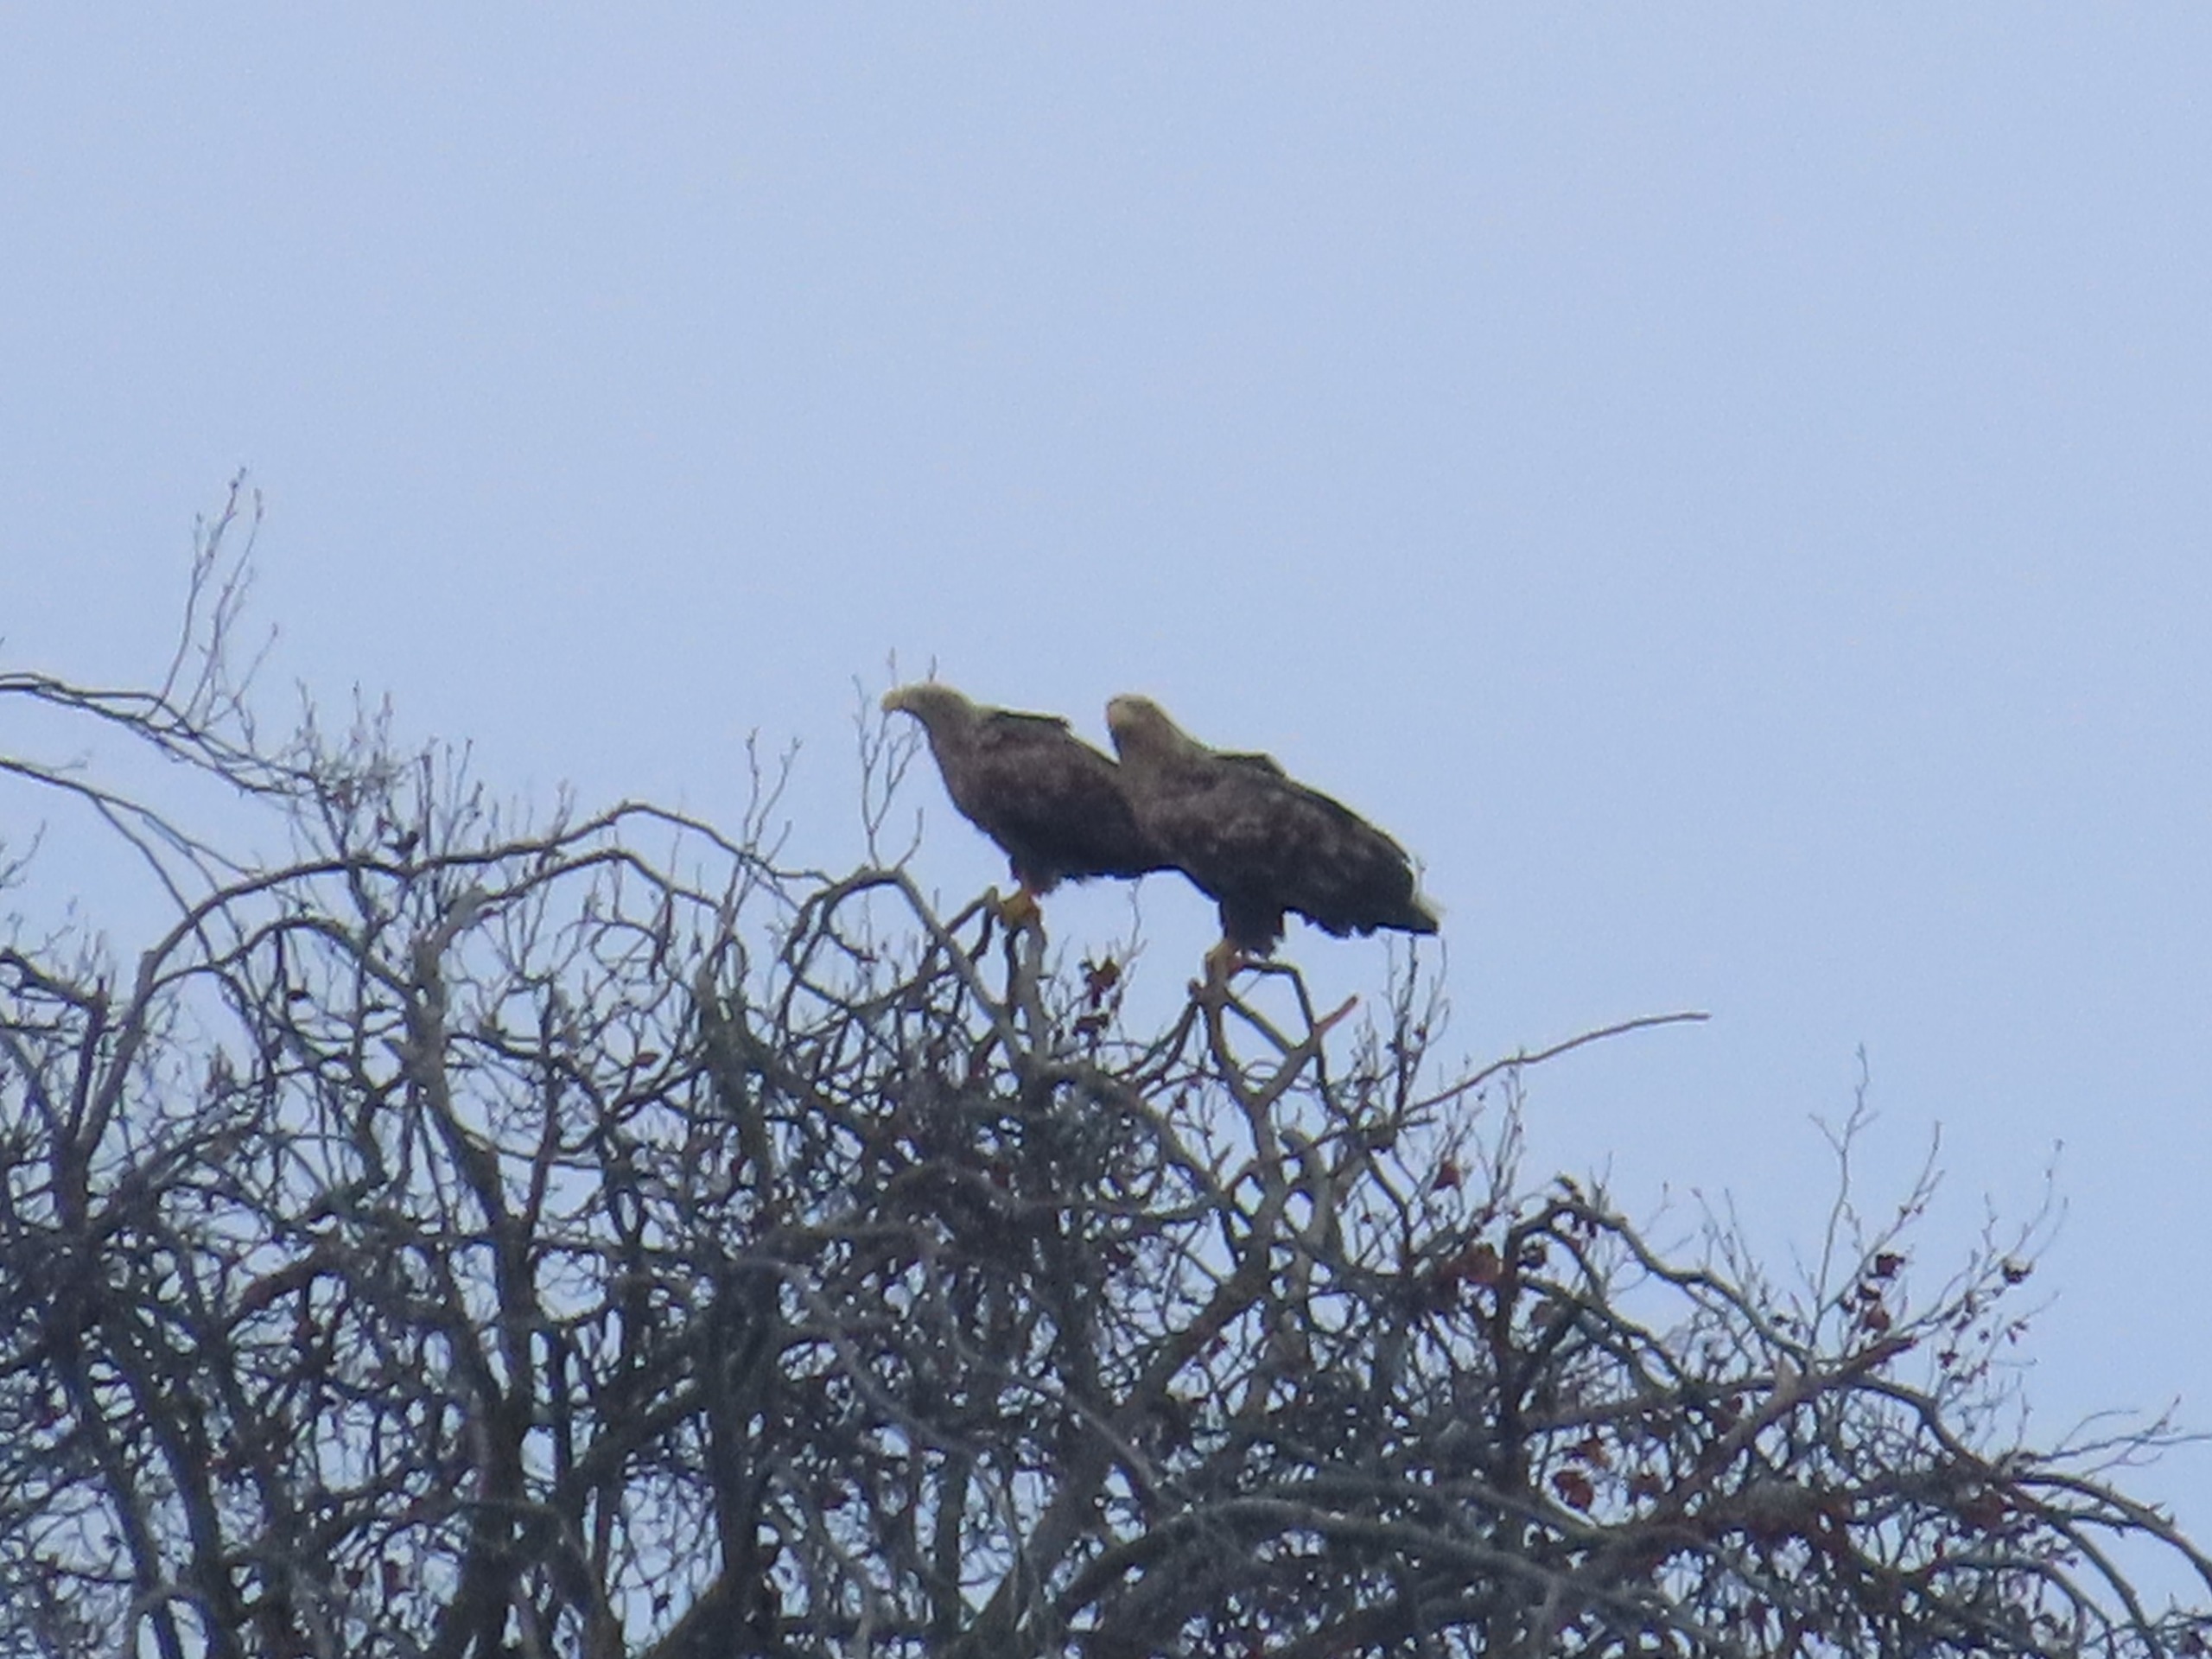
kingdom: Animalia
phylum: Chordata
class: Aves
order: Accipitriformes
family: Accipitridae
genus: Haliaeetus
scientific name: Haliaeetus albicilla
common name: Havørn
